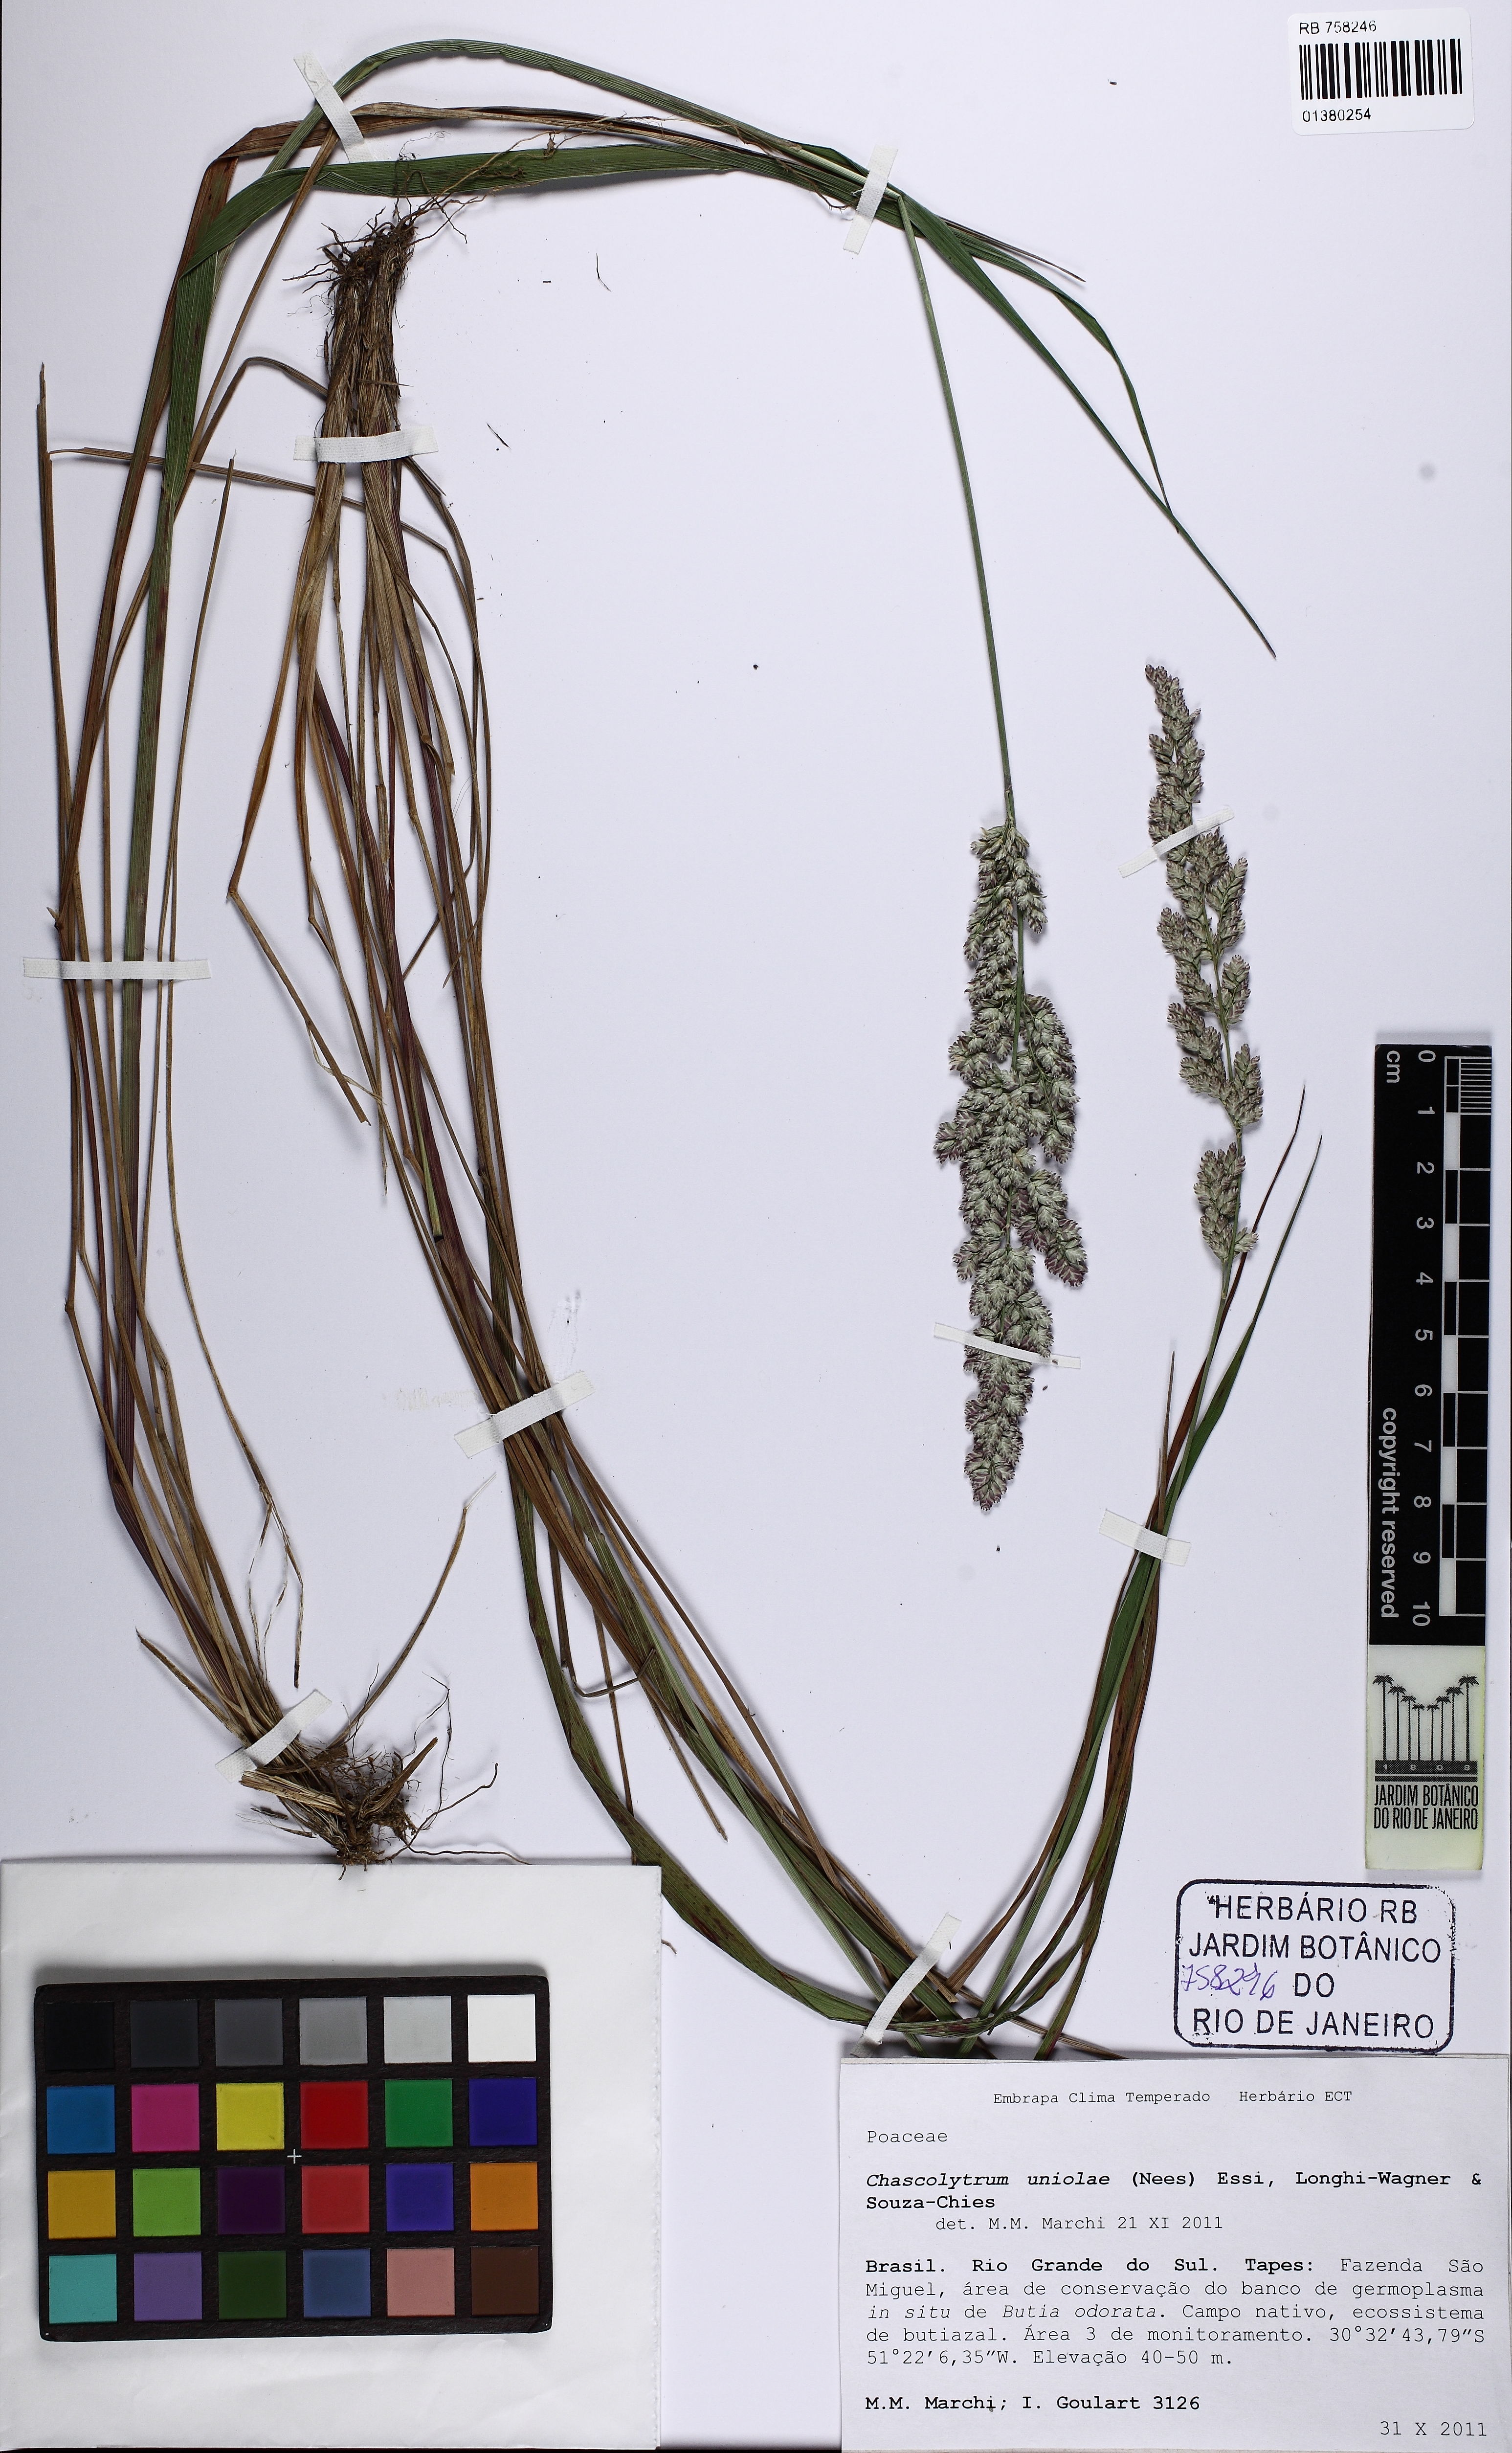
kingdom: Plantae
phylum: Tracheophyta
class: Liliopsida
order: Poales
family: Poaceae
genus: Poidium
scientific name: Poidium uniolae
